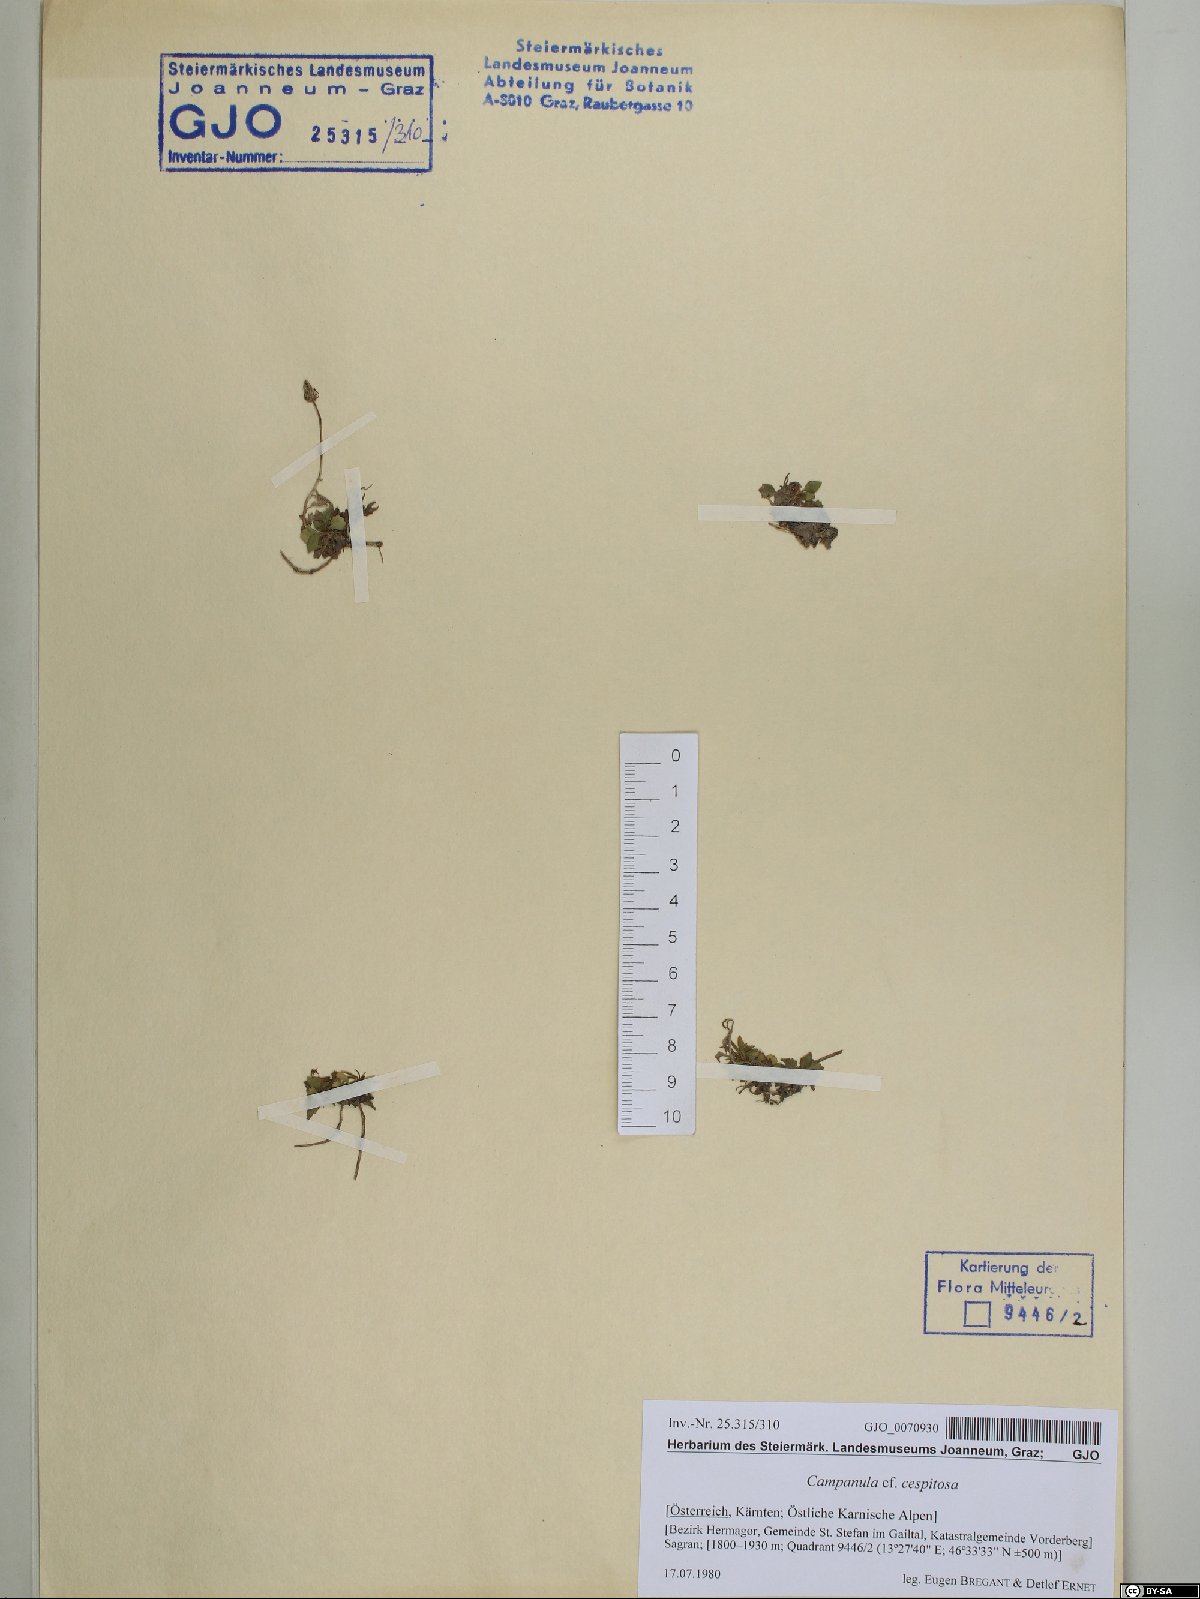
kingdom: Plantae
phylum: Tracheophyta
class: Magnoliopsida
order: Asterales
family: Campanulaceae
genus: Campanula
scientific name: Campanula cespitosa
